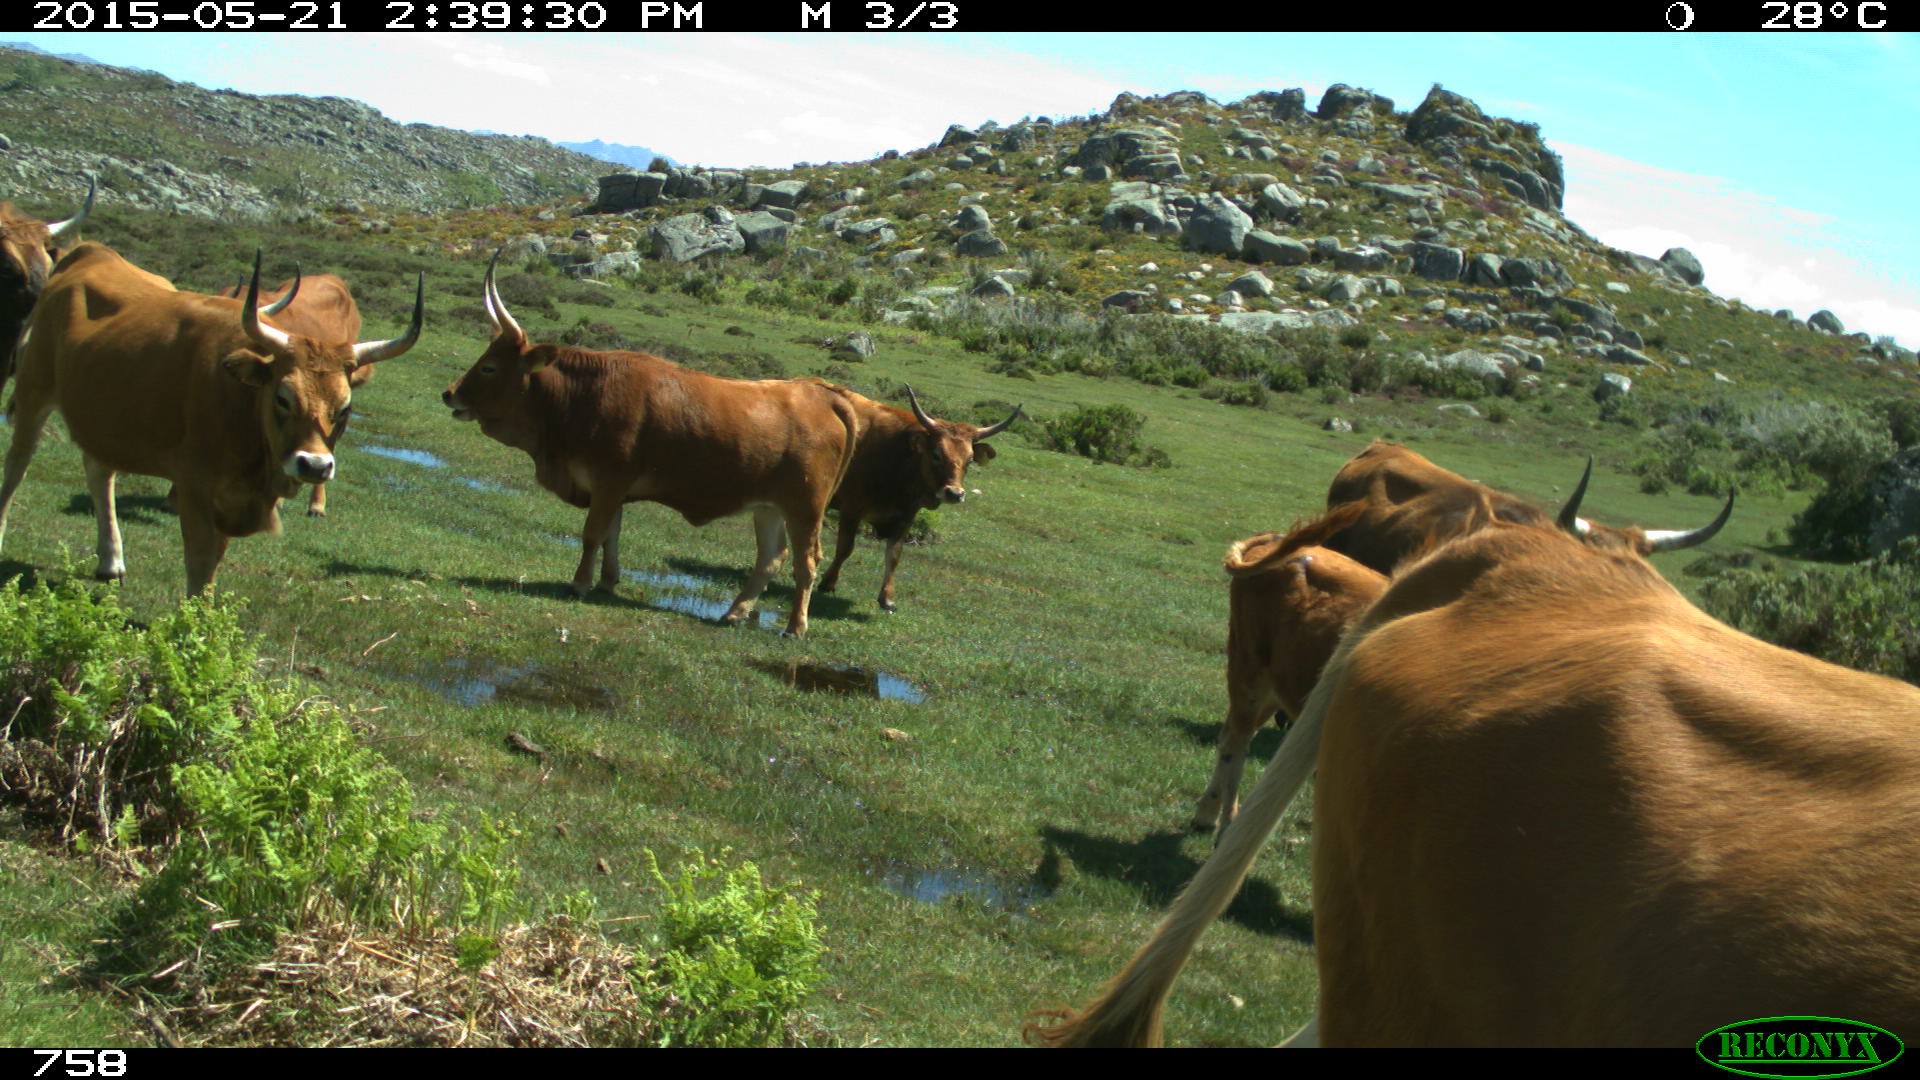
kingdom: Animalia
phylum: Chordata
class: Mammalia
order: Artiodactyla
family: Bovidae
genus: Bos
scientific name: Bos taurus
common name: Domesticated cattle
